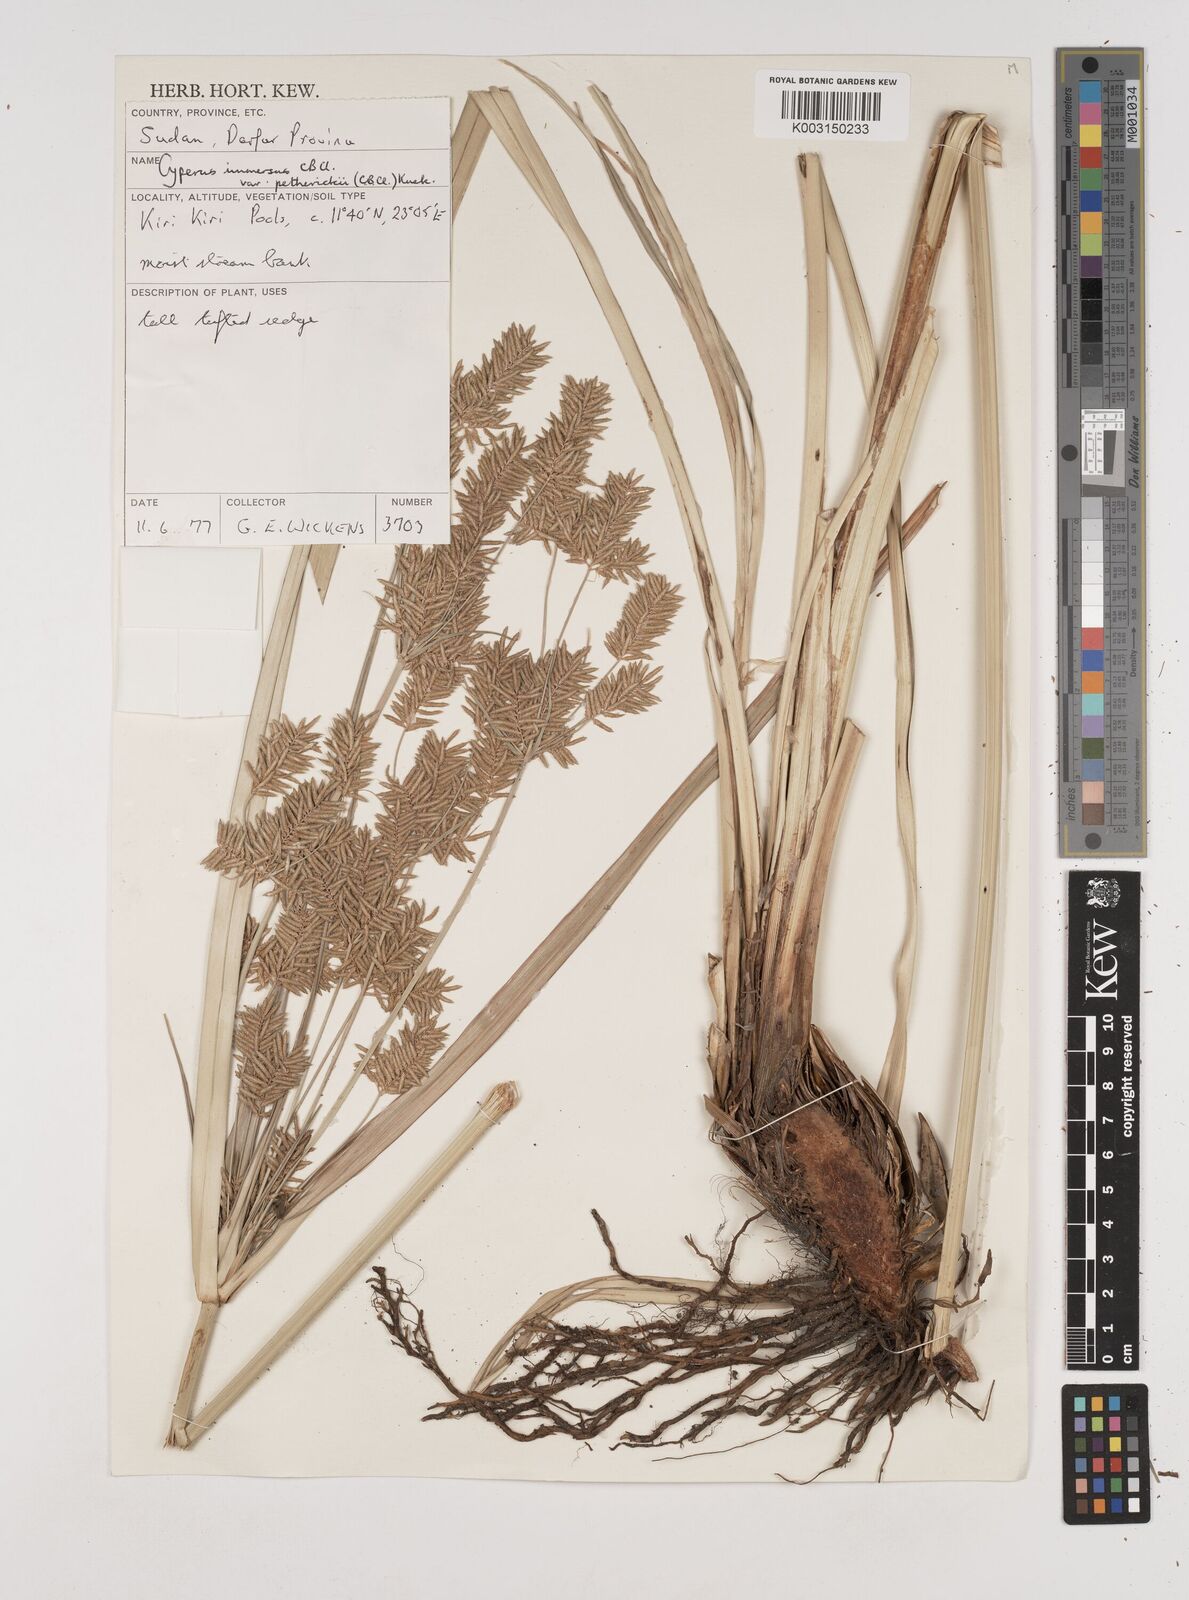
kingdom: Plantae
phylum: Tracheophyta
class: Liliopsida
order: Poales
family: Cyperaceae
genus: Cyperus
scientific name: Cyperus dives
